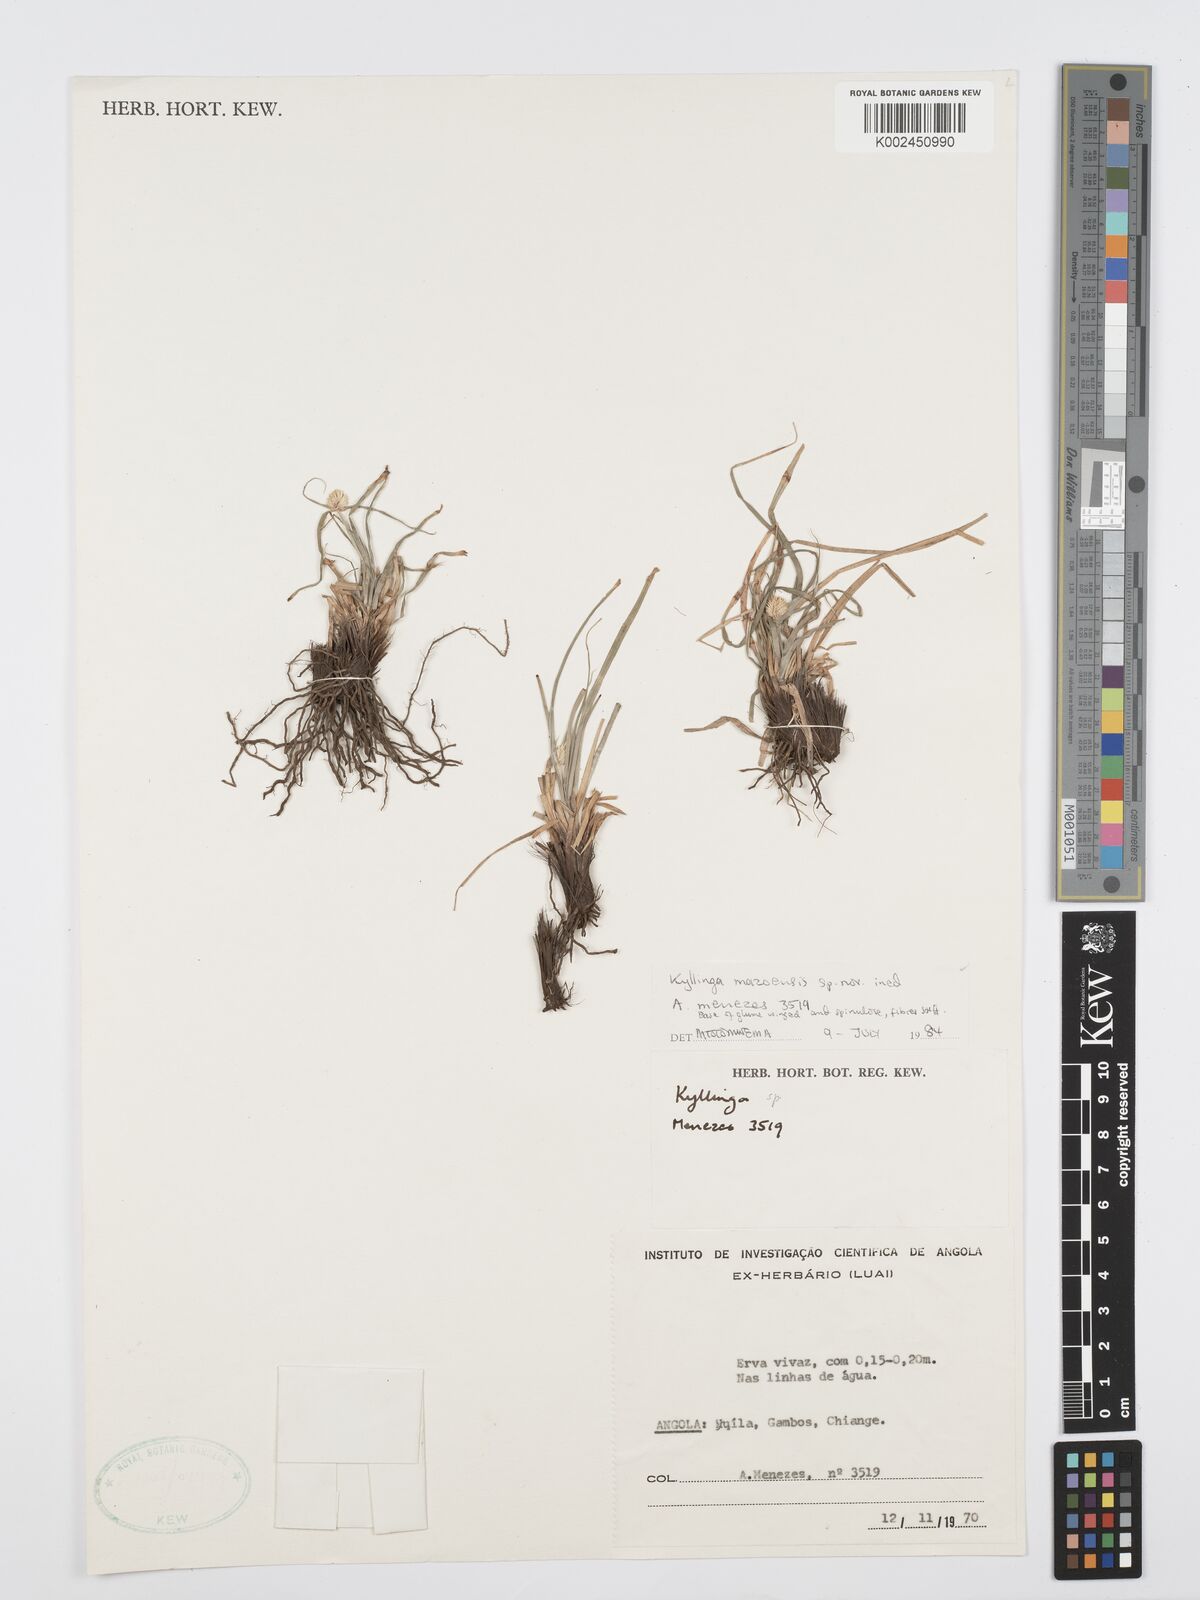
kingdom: Plantae
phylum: Tracheophyta
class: Liliopsida
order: Poales
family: Cyperaceae
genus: Cyperus
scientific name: Cyperus
